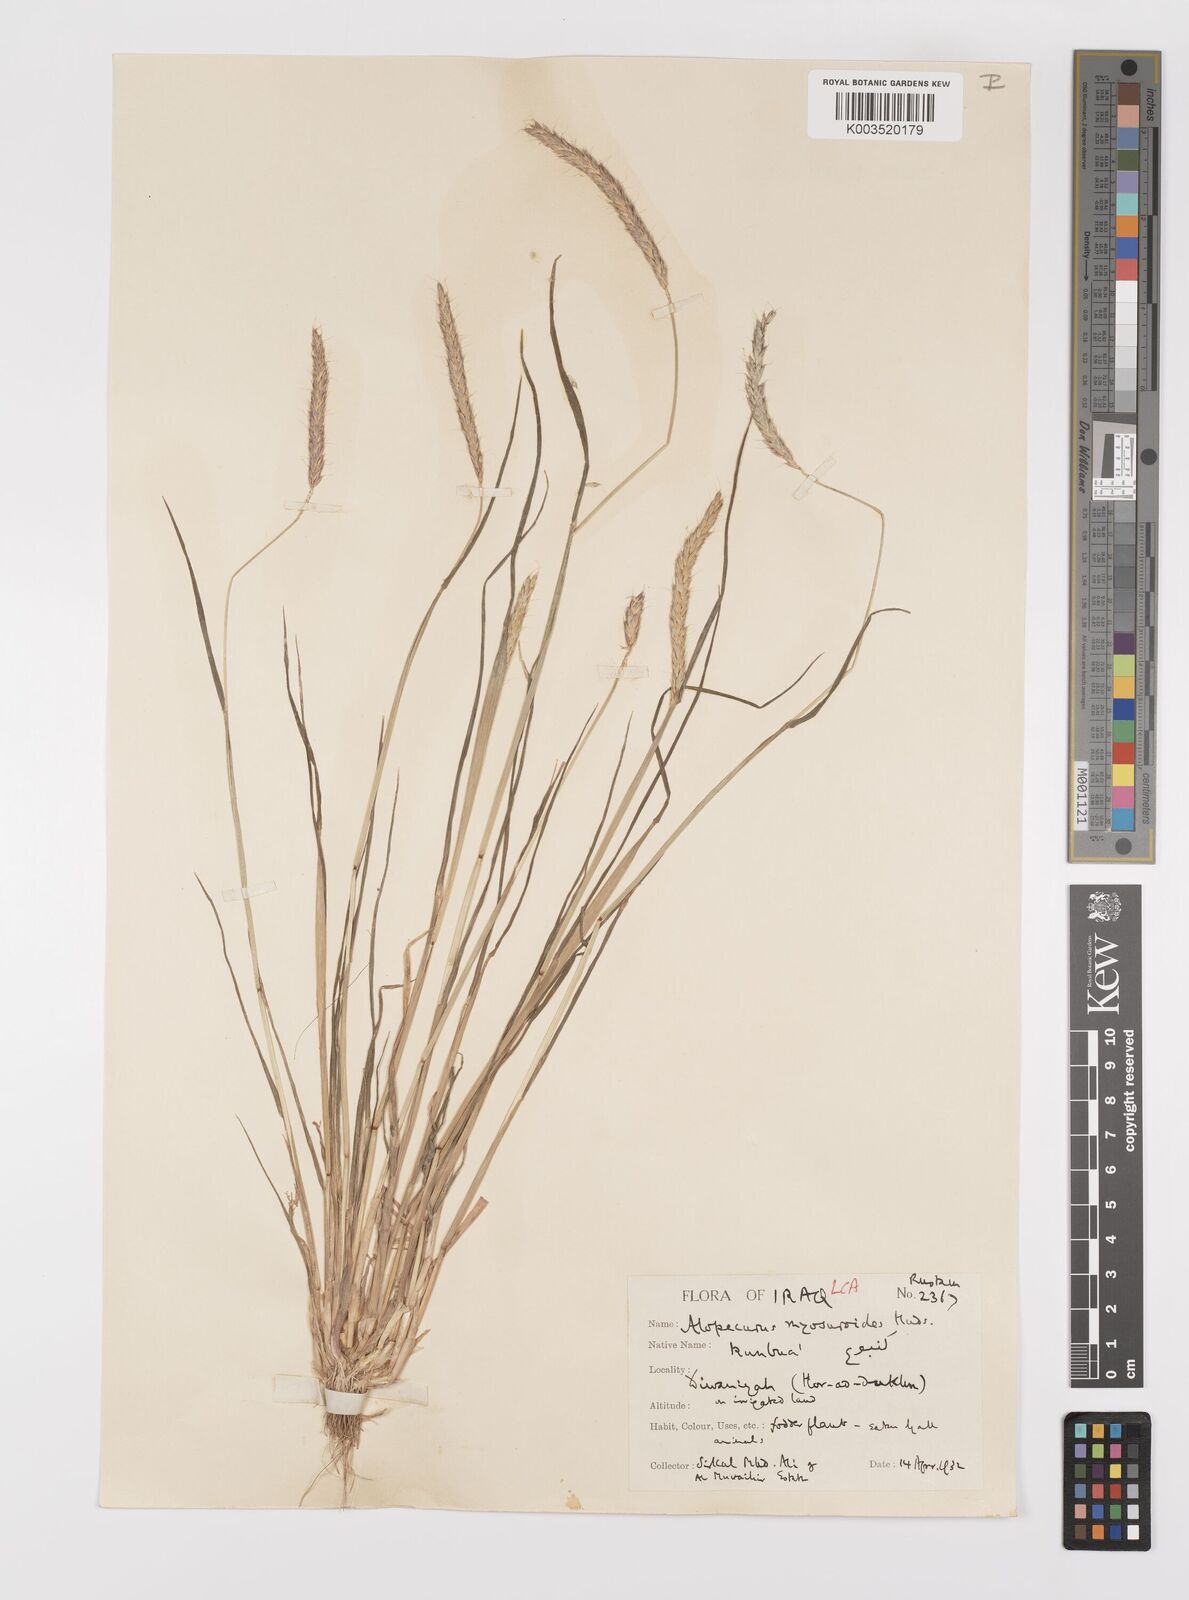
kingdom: Plantae
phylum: Tracheophyta
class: Liliopsida
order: Poales
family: Poaceae
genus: Alopecurus
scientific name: Alopecurus myosuroides
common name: Black-grass
